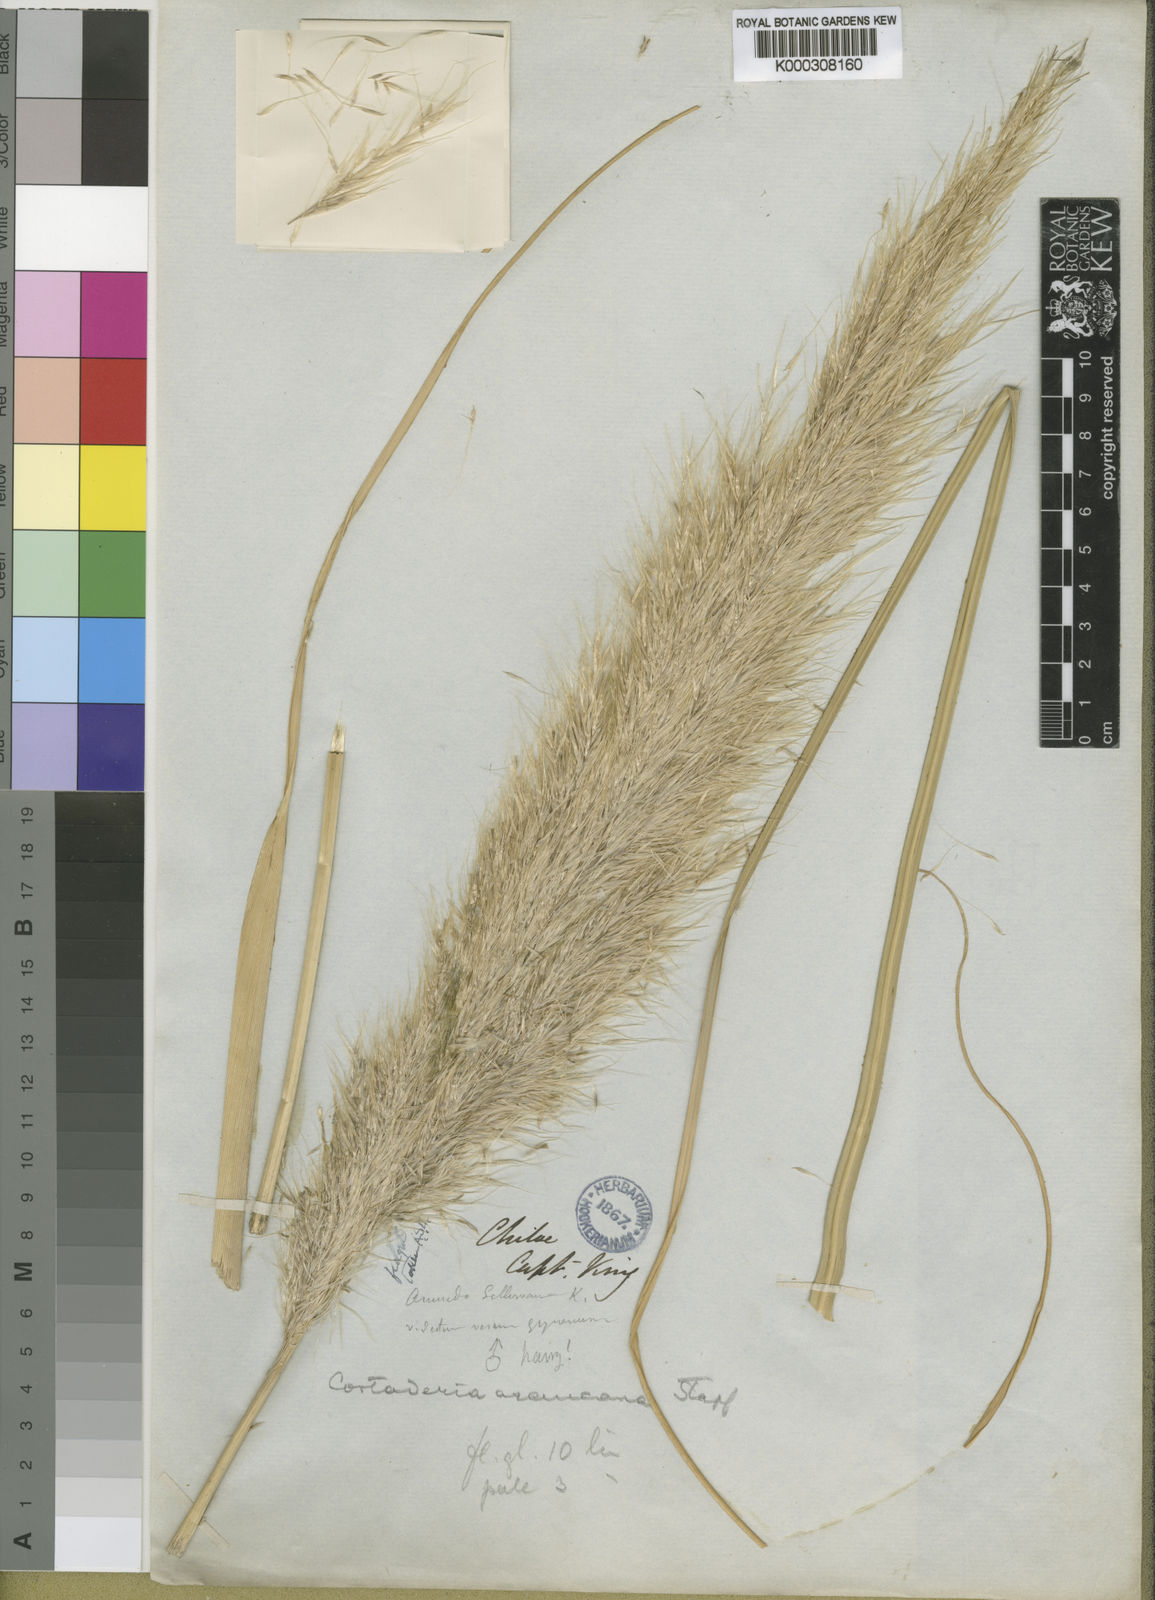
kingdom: Plantae
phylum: Tracheophyta
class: Liliopsida
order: Poales
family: Poaceae
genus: Cortaderia
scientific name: Cortaderia araucana
